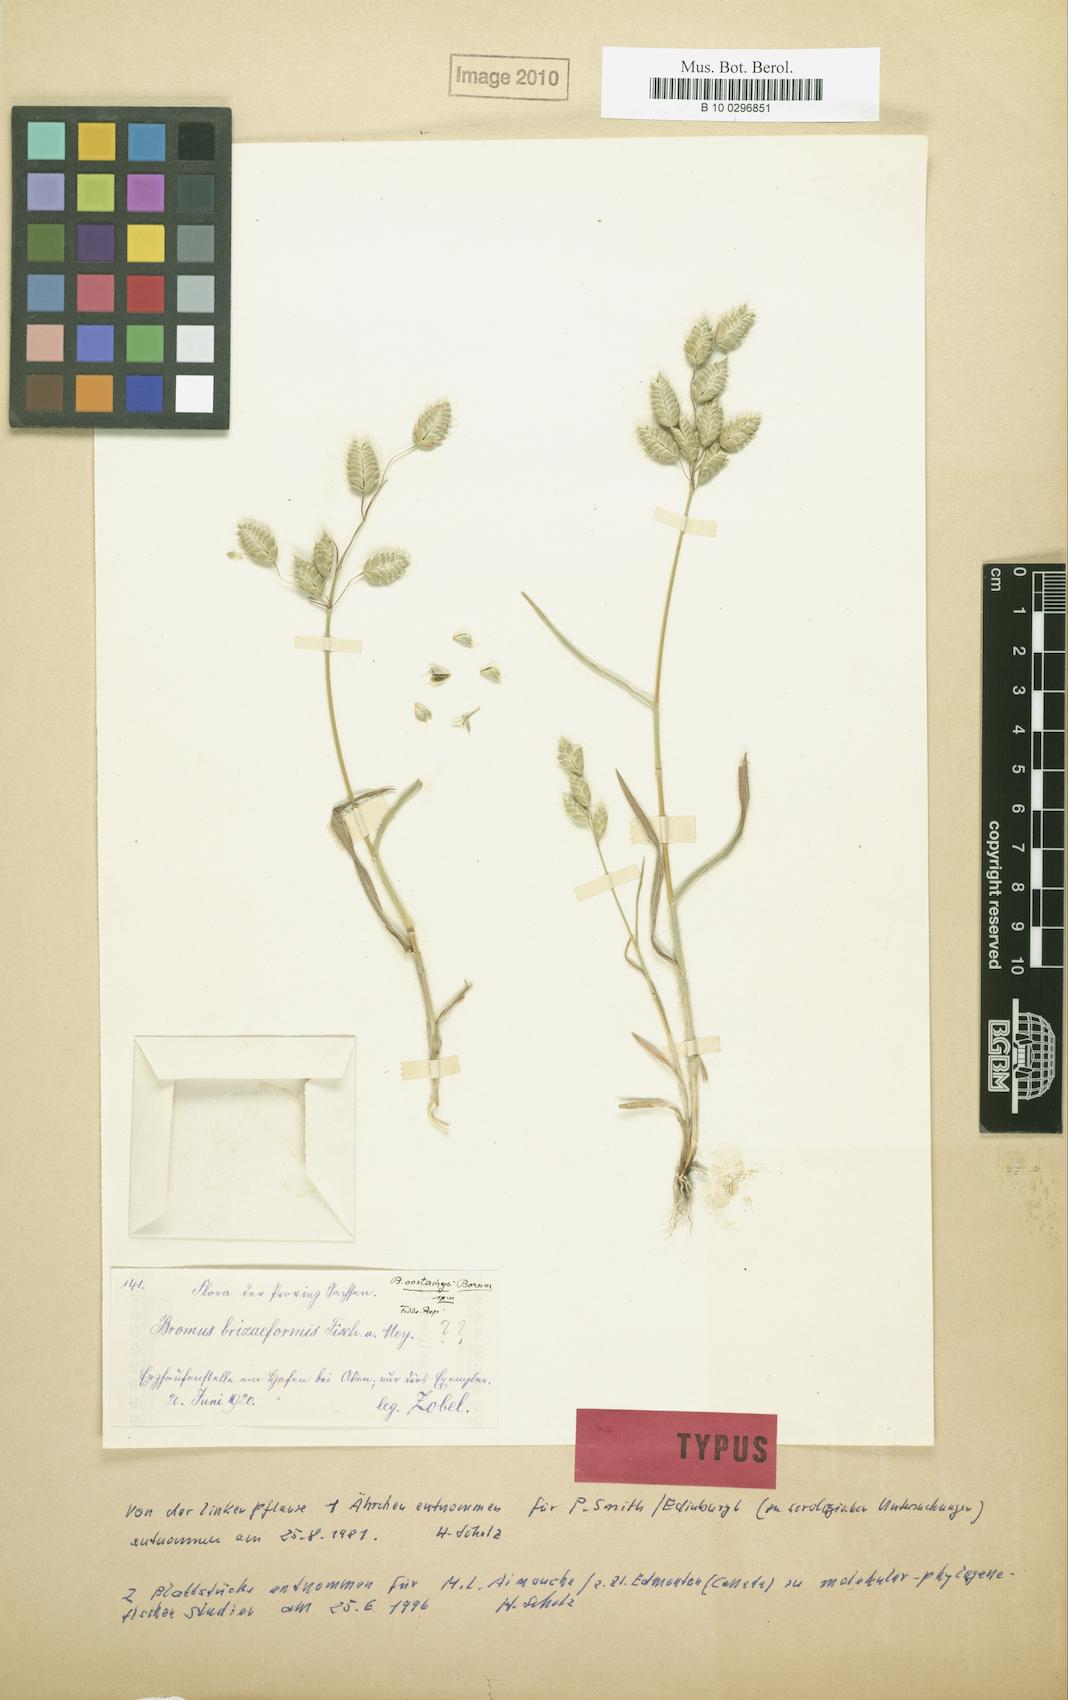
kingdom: Plantae
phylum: Tracheophyta
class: Liliopsida
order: Poales
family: Poaceae
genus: Bromus
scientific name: Bromus lepidus
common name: Slender soft-brome
